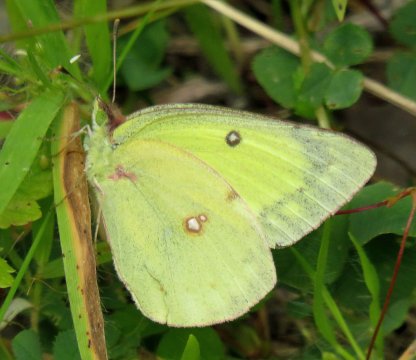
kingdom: Animalia
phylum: Arthropoda
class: Insecta
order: Lepidoptera
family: Pieridae
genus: Colias
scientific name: Colias philodice
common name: Clouded Sulphur
